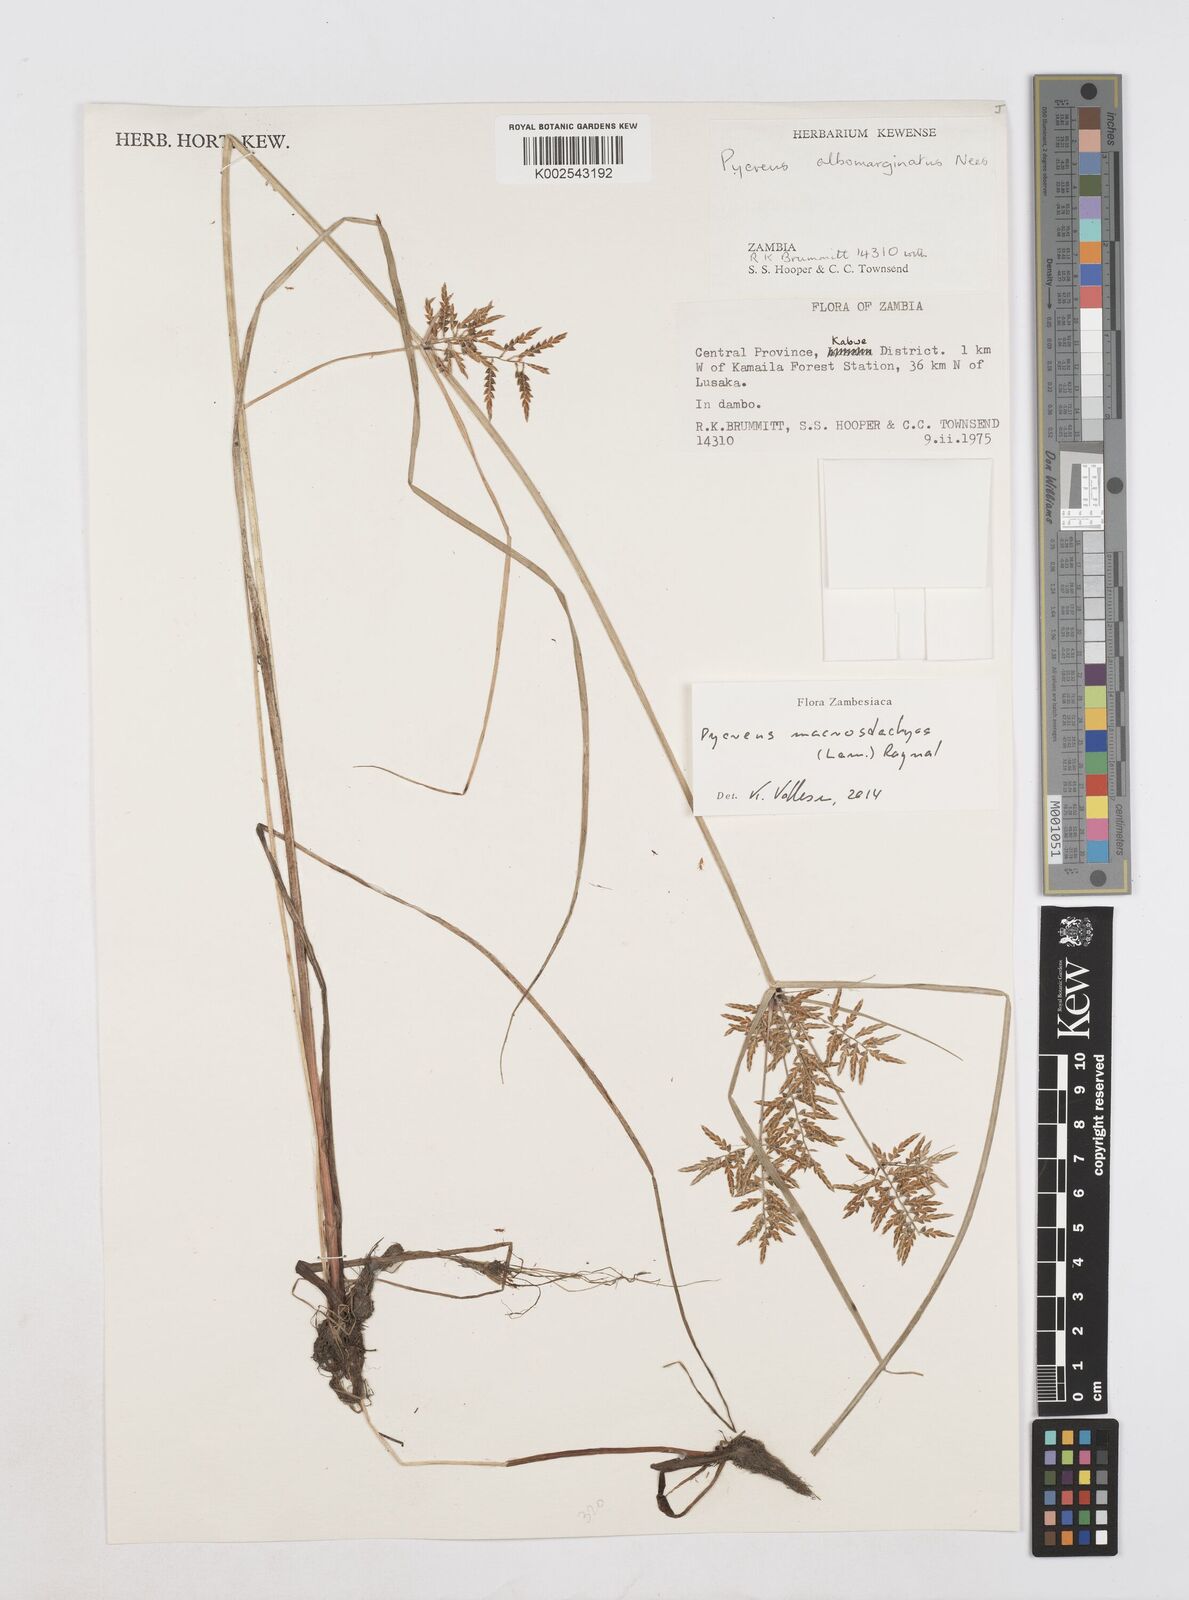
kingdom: Plantae
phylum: Tracheophyta
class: Liliopsida
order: Poales
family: Cyperaceae
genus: Cyperus
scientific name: Cyperus macrostachyos
